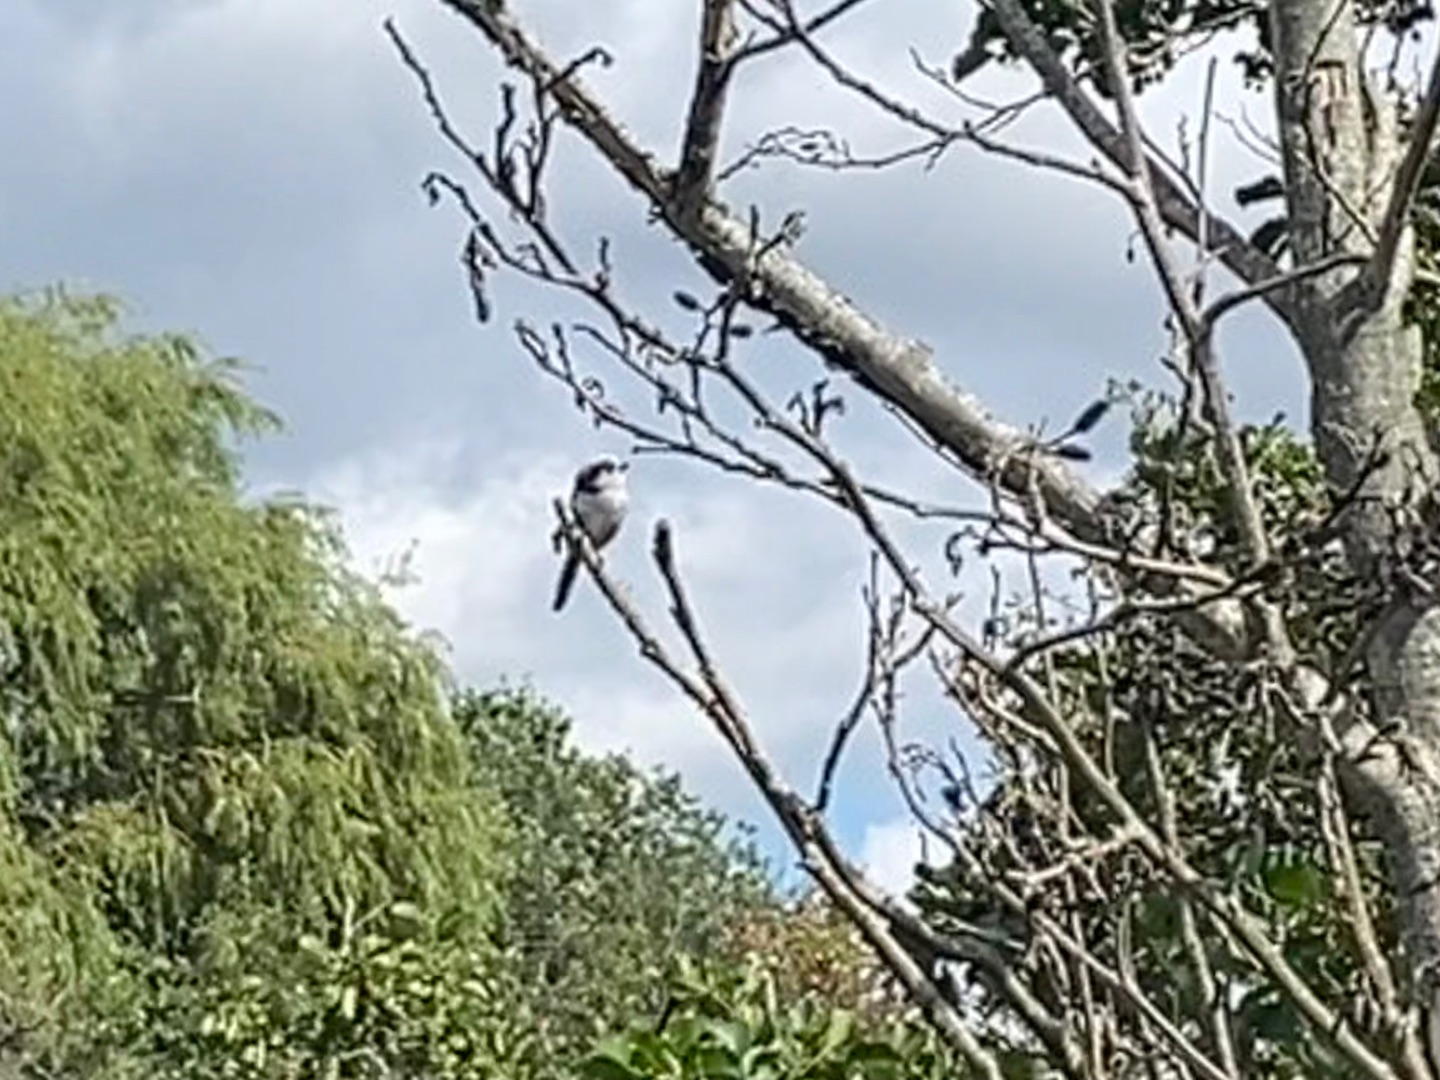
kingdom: Animalia
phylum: Chordata
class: Aves
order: Passeriformes
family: Aegithalidae
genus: Aegithalos
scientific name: Aegithalos caudatus
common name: Halemejse
